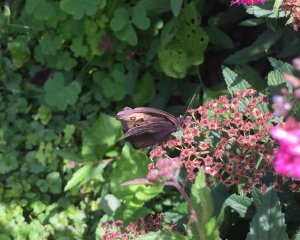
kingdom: Animalia
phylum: Arthropoda
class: Insecta
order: Lepidoptera
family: Nymphalidae
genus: Cercyonis
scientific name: Cercyonis pegala
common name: Common Wood-Nymph
